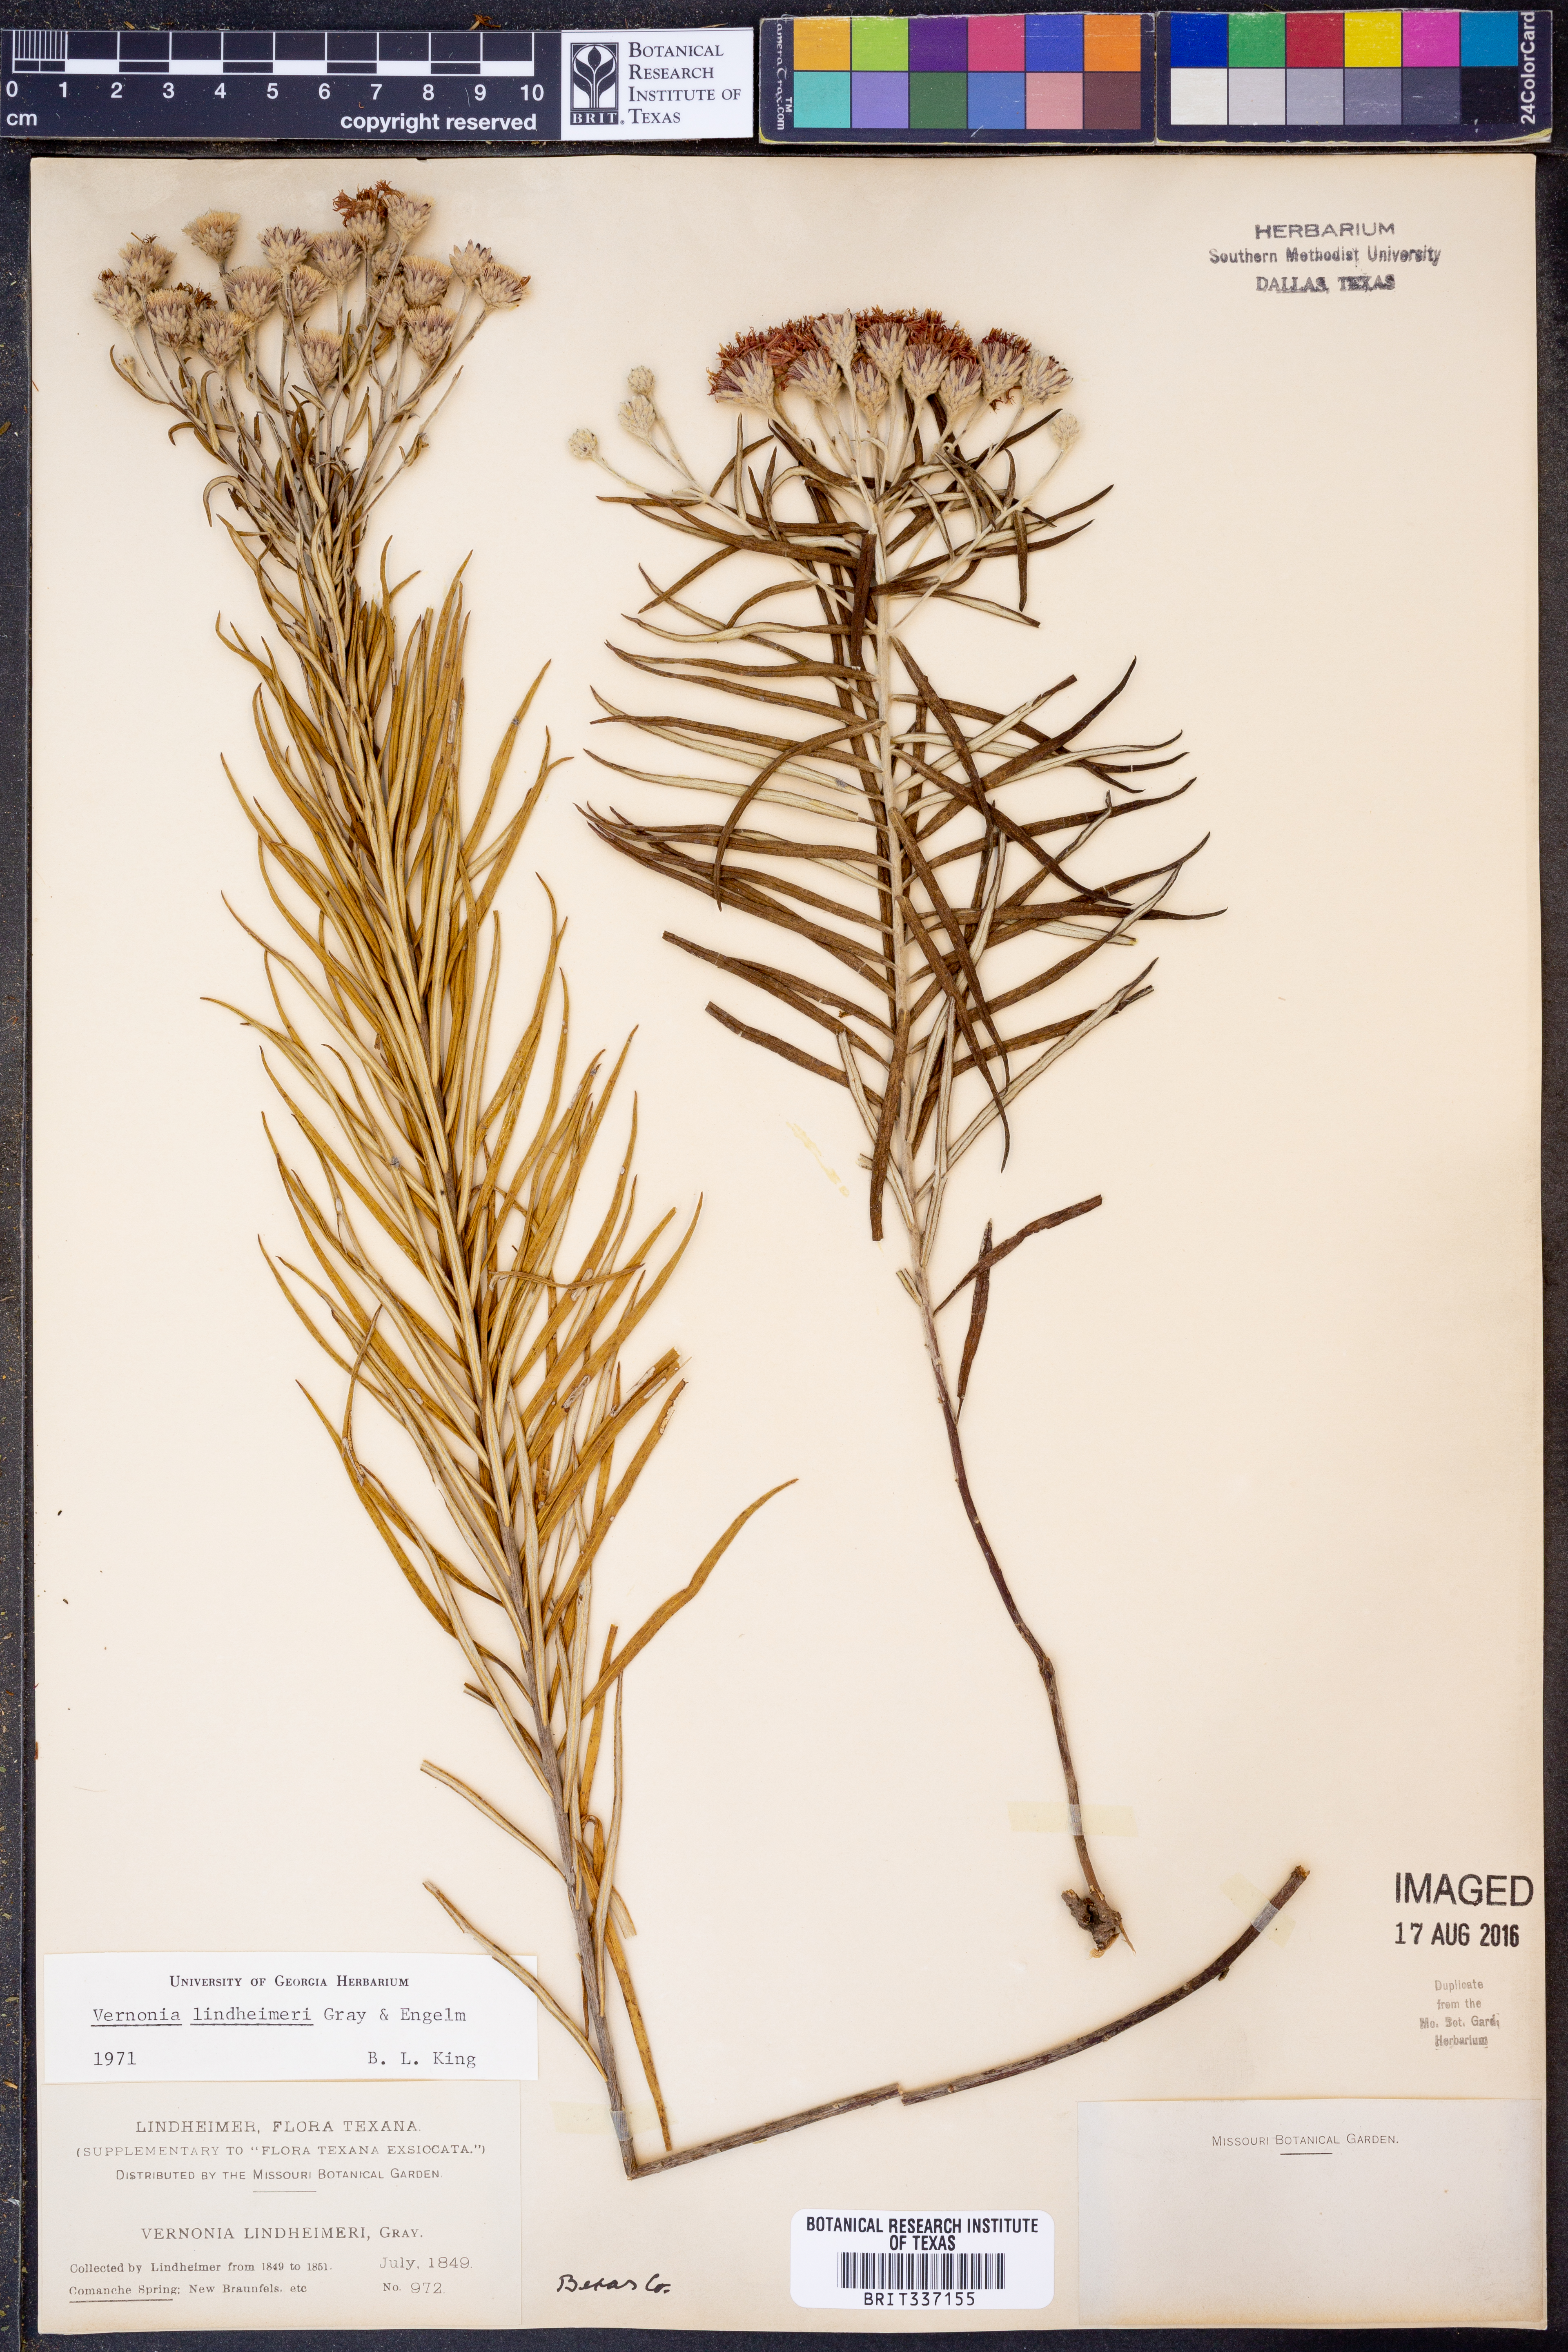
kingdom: Plantae
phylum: Tracheophyta
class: Magnoliopsida
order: Asterales
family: Asteraceae
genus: Vernonia
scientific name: Vernonia lindheimeri
